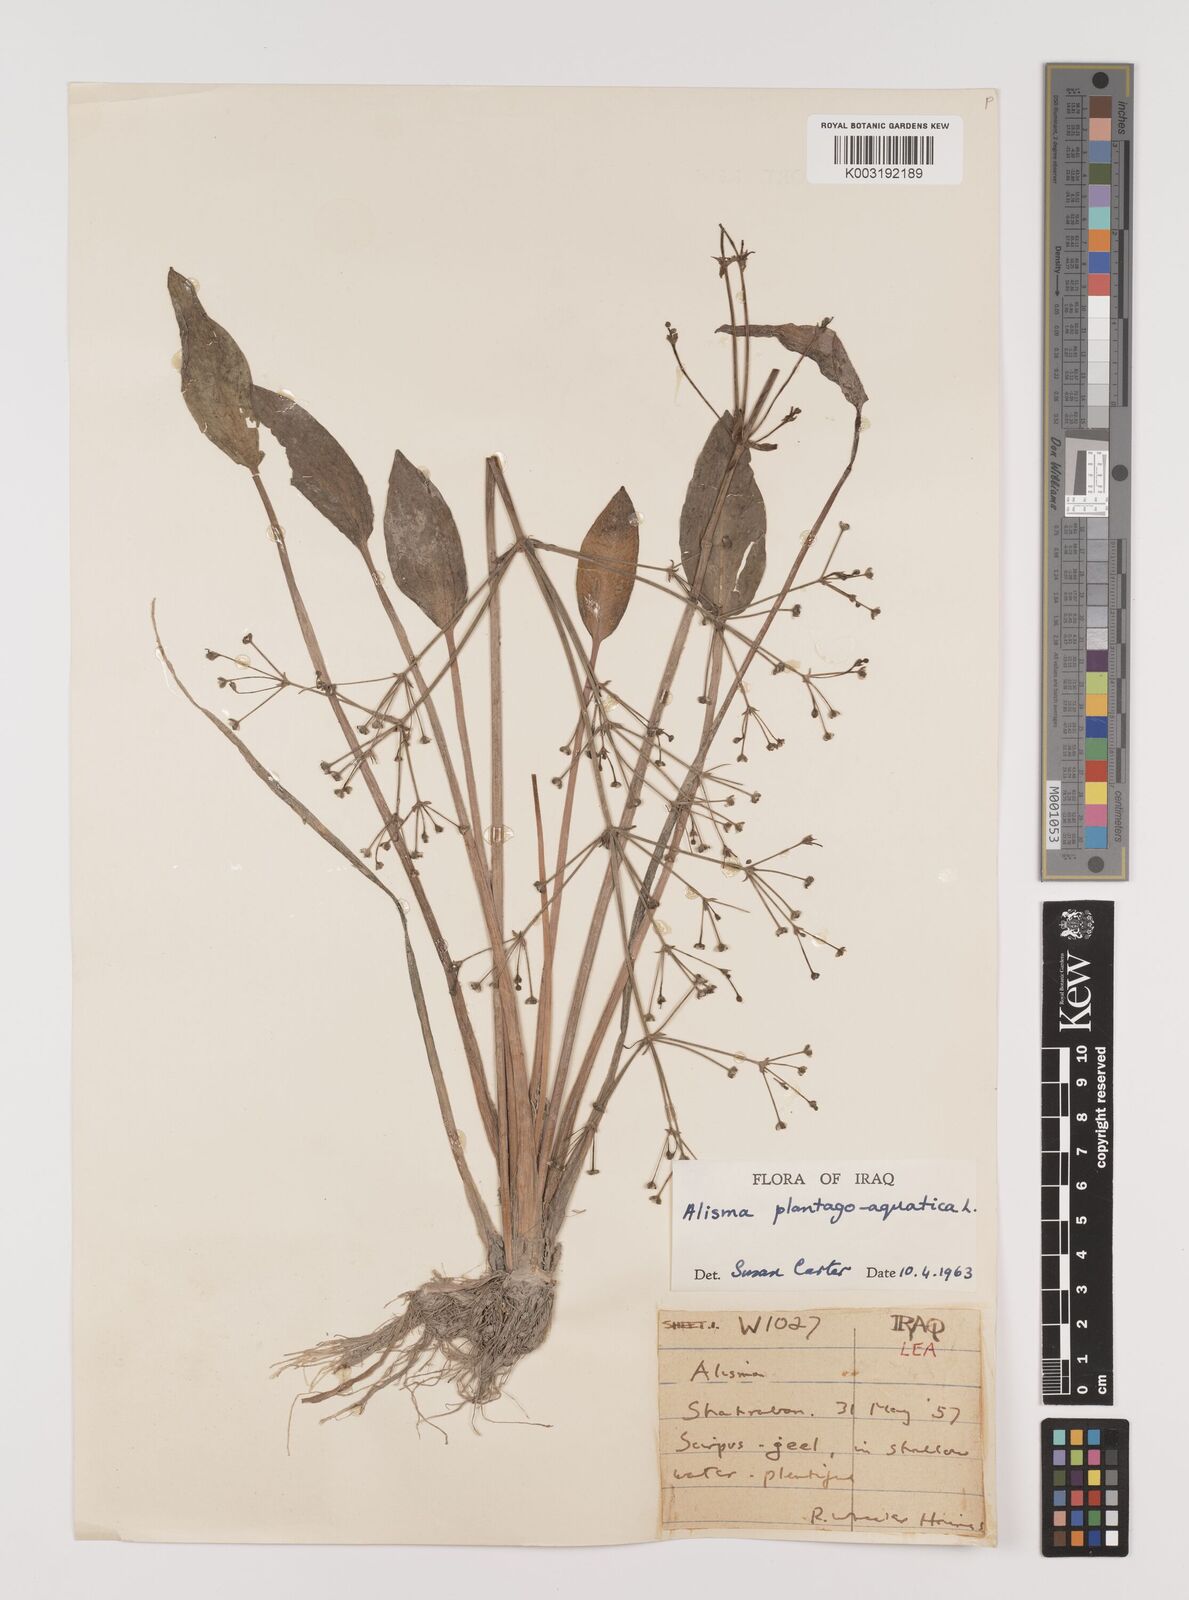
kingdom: Plantae
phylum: Tracheophyta
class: Liliopsida
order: Alismatales
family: Alismataceae
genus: Alisma
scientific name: Alisma plantago-aquatica
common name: Water-plantain
